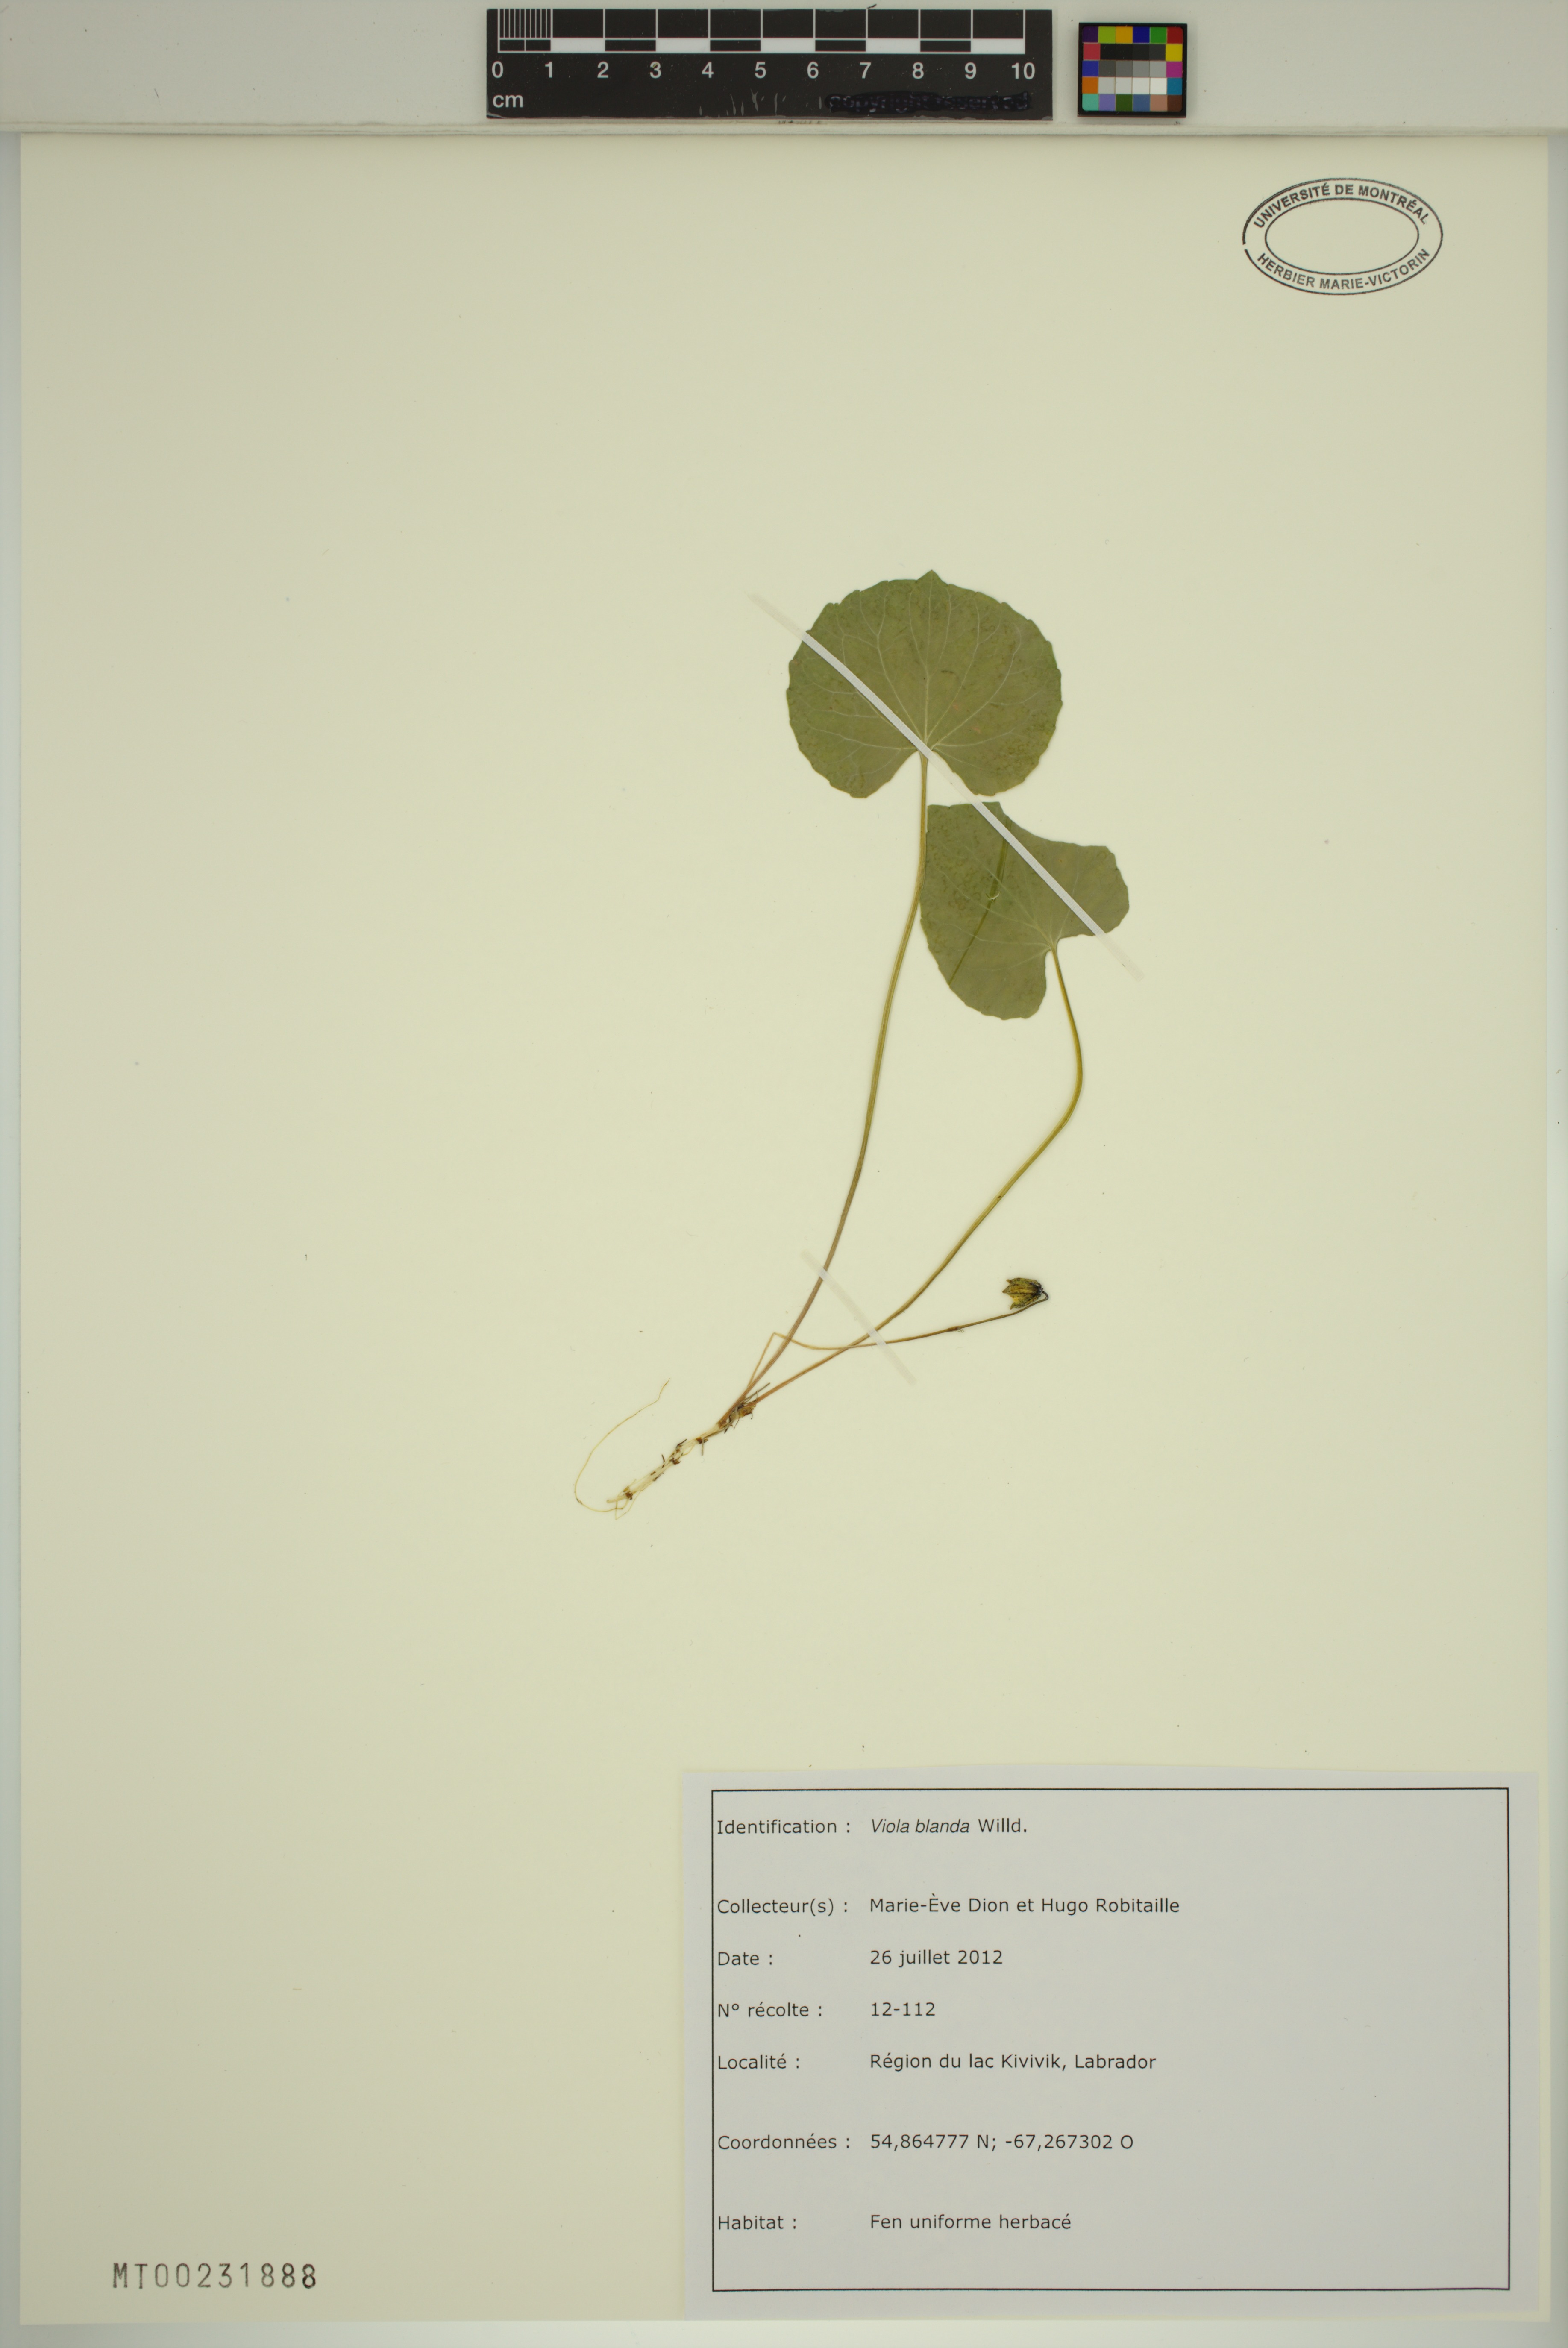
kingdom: Plantae
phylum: Tracheophyta
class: Magnoliopsida
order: Malpighiales
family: Violaceae
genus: Viola
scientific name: Viola blanda
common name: Sweet white violet
